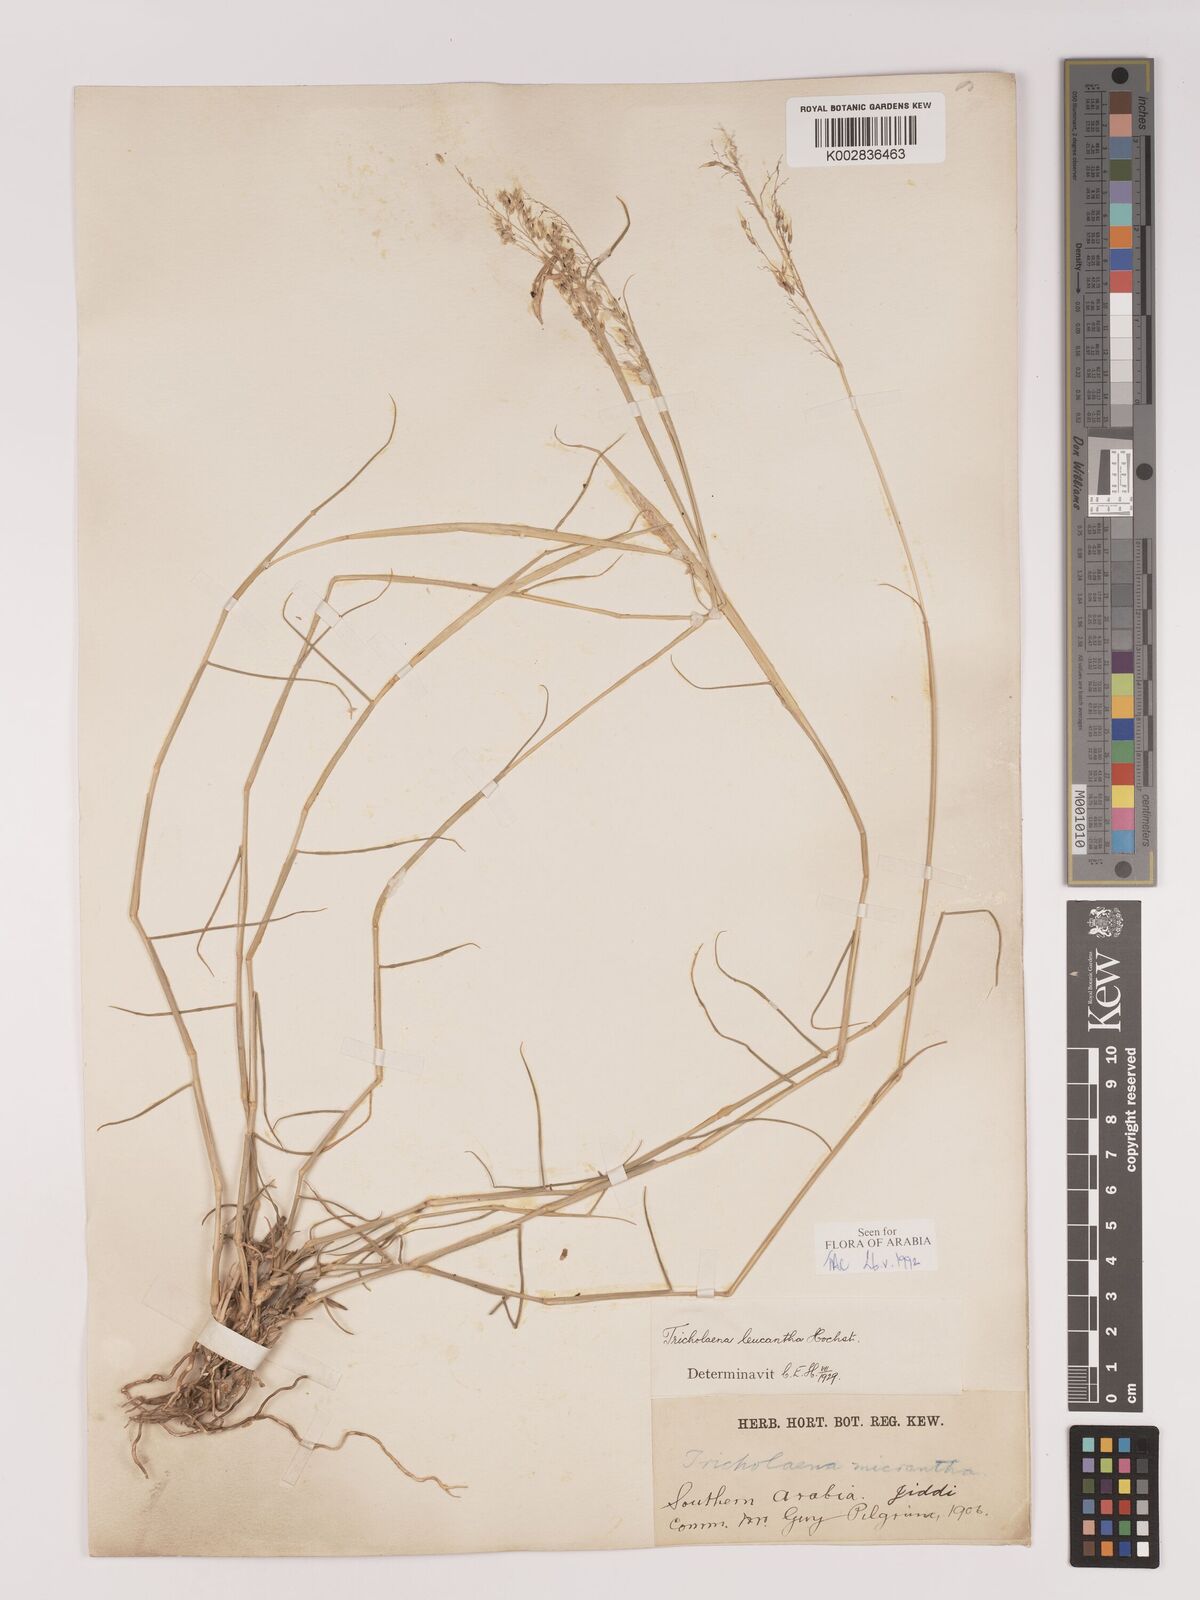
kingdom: Plantae
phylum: Tracheophyta
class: Liliopsida
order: Poales
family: Poaceae
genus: Tricholaena
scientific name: Tricholaena teneriffae
